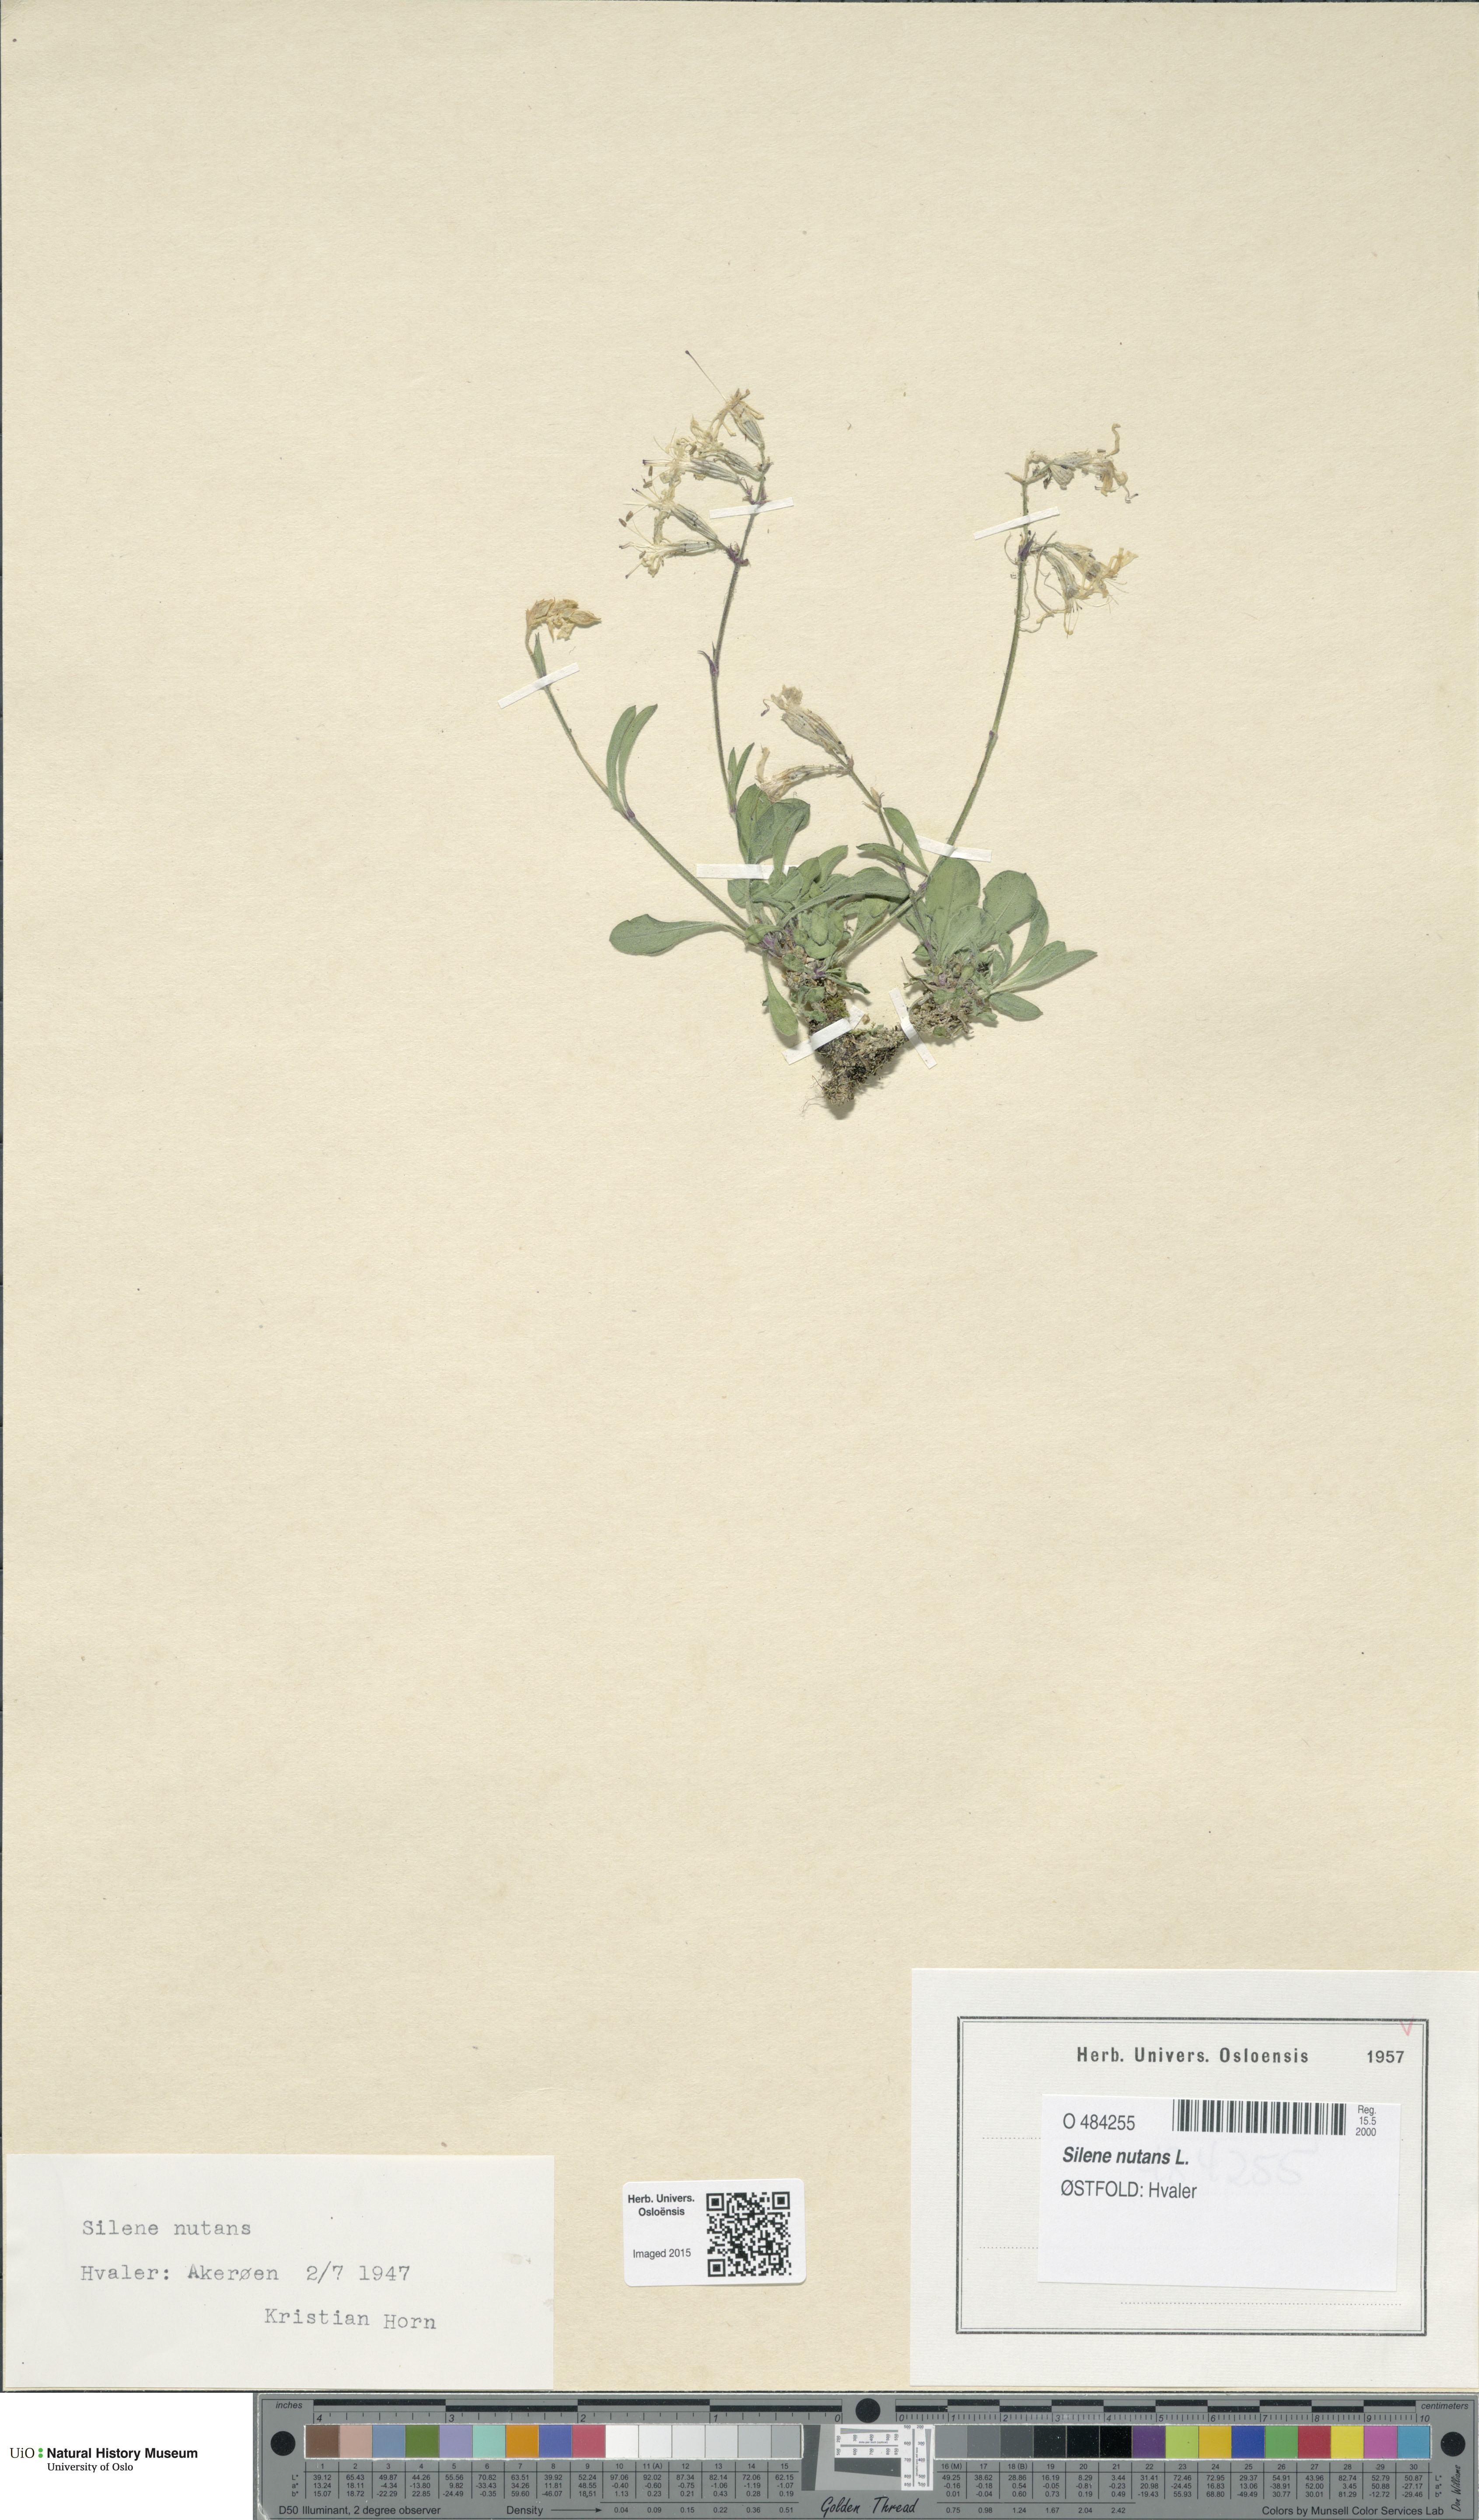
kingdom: Plantae
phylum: Tracheophyta
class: Magnoliopsida
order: Caryophyllales
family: Caryophyllaceae
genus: Silene
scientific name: Silene nutans
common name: Nottingham catchfly
